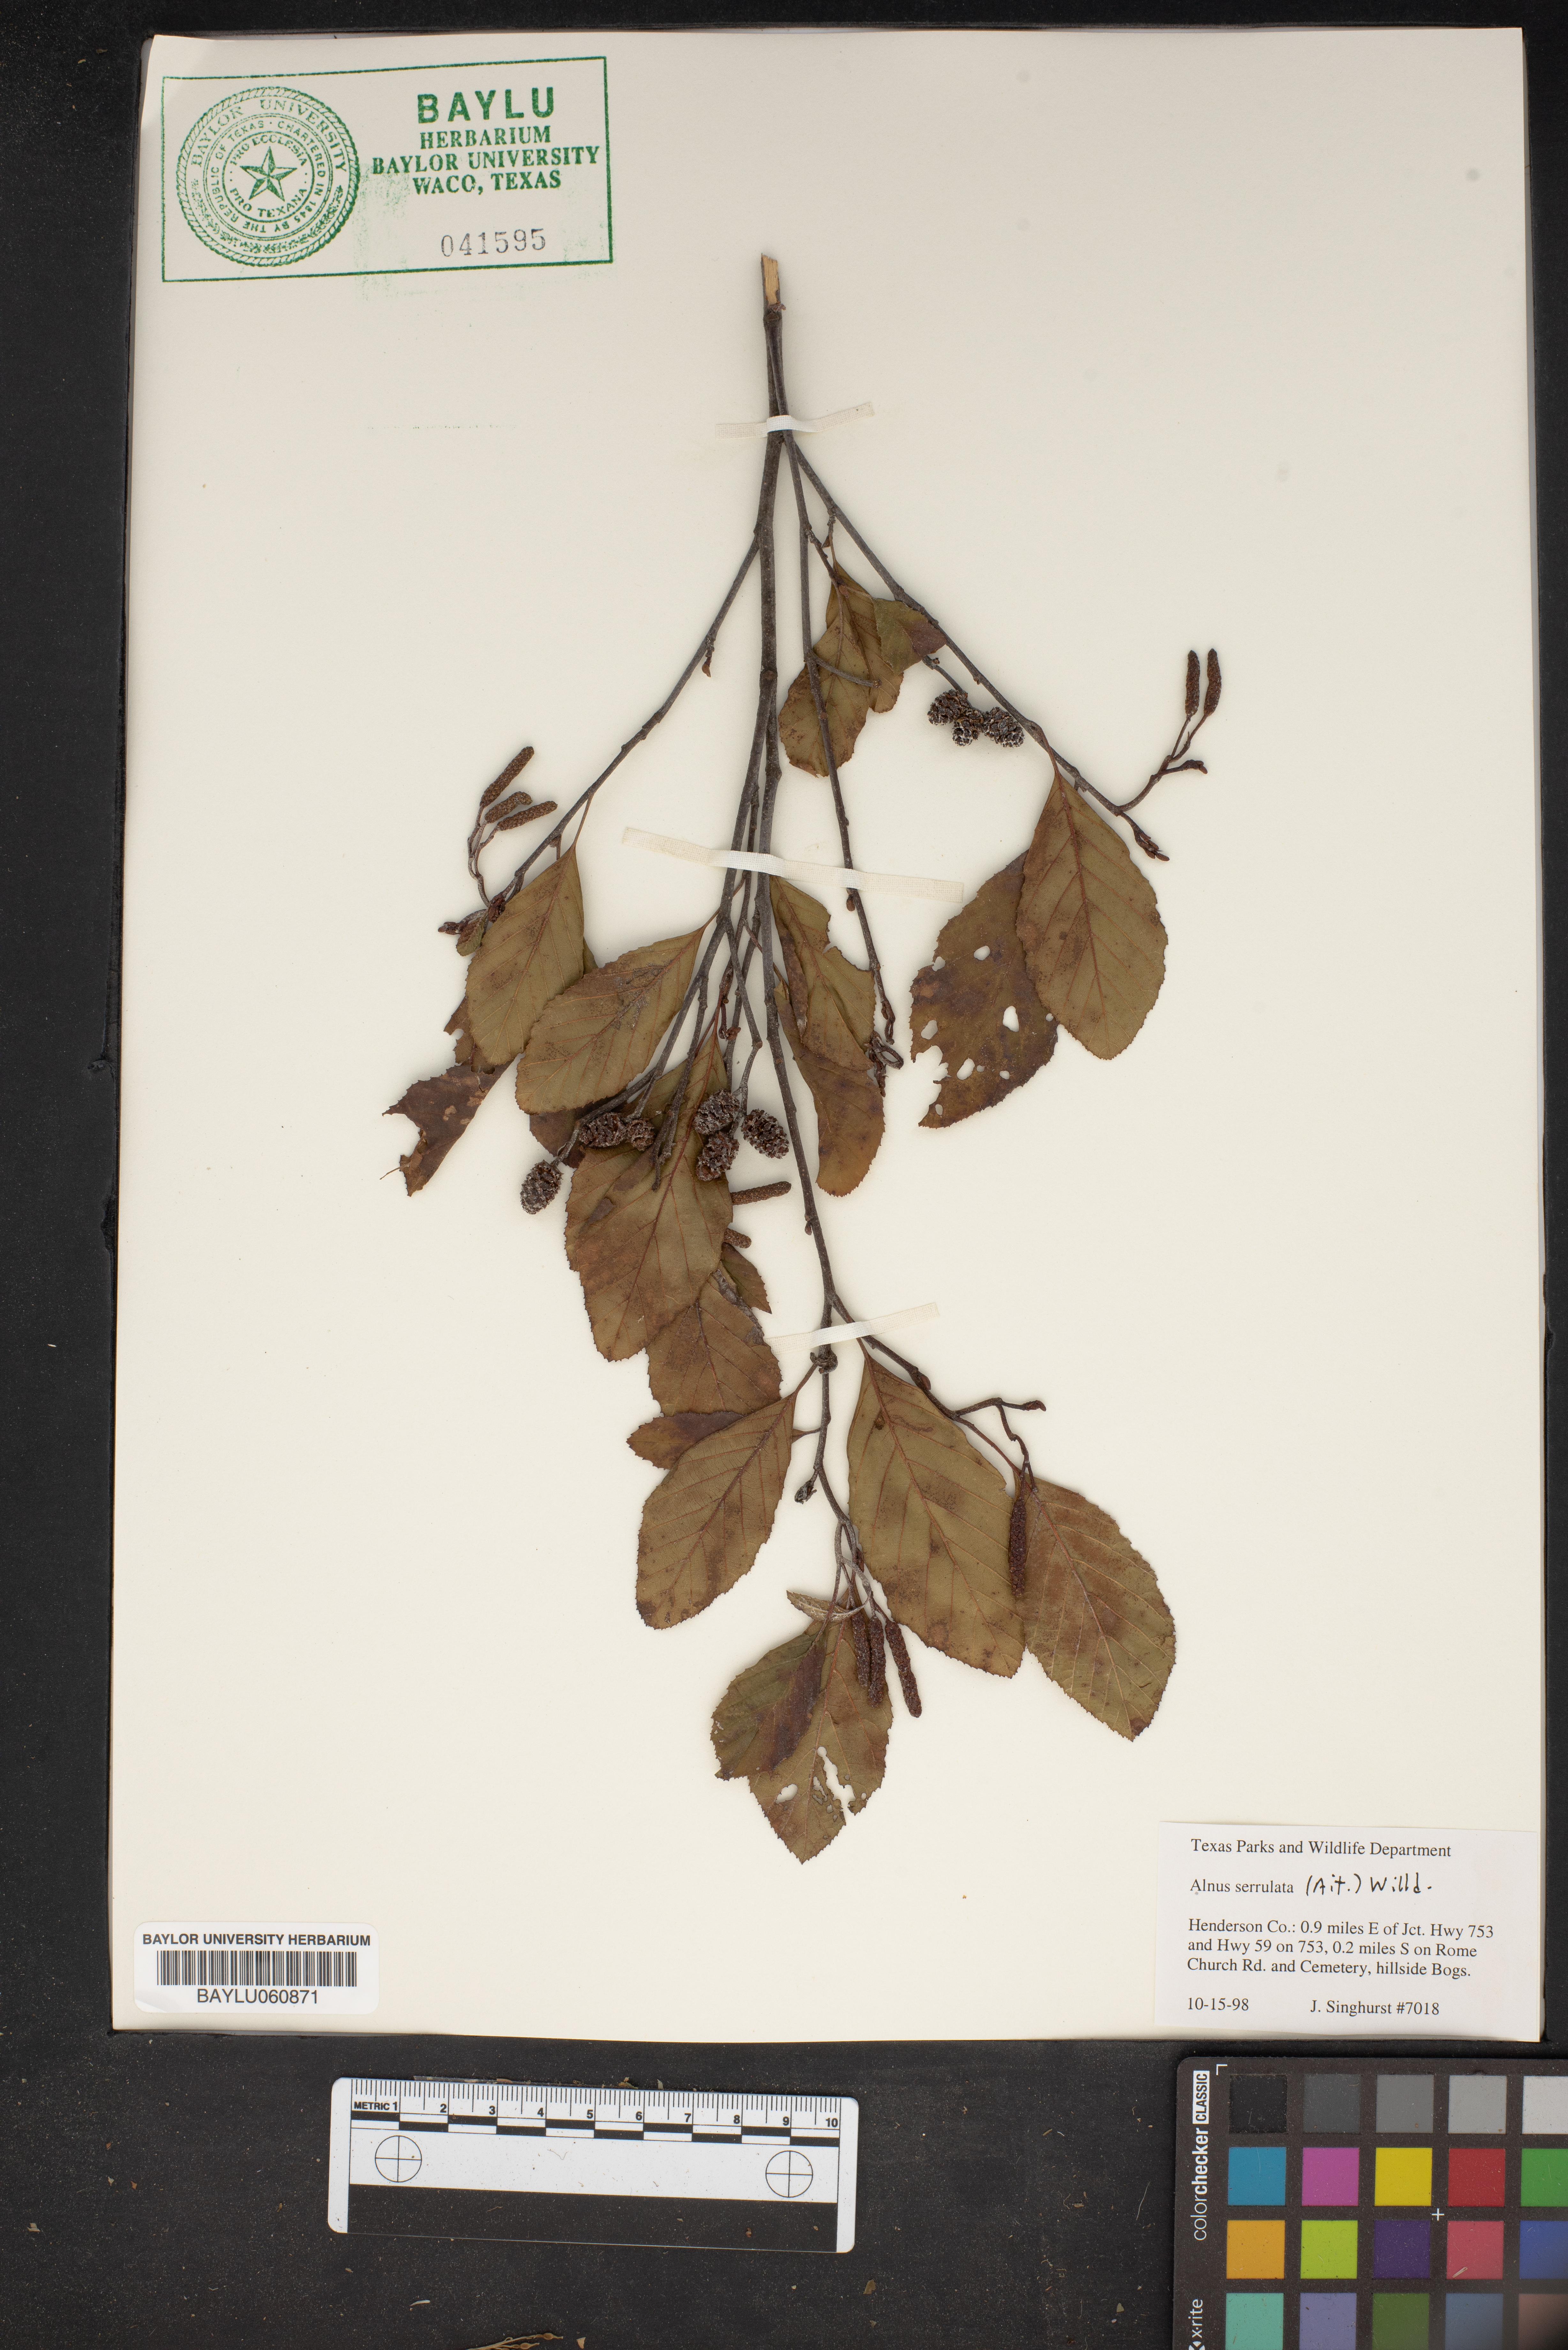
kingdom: Plantae
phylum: Tracheophyta
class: Magnoliopsida
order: Fagales
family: Betulaceae
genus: Alnus
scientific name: Alnus serrulata
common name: Hazel alder
